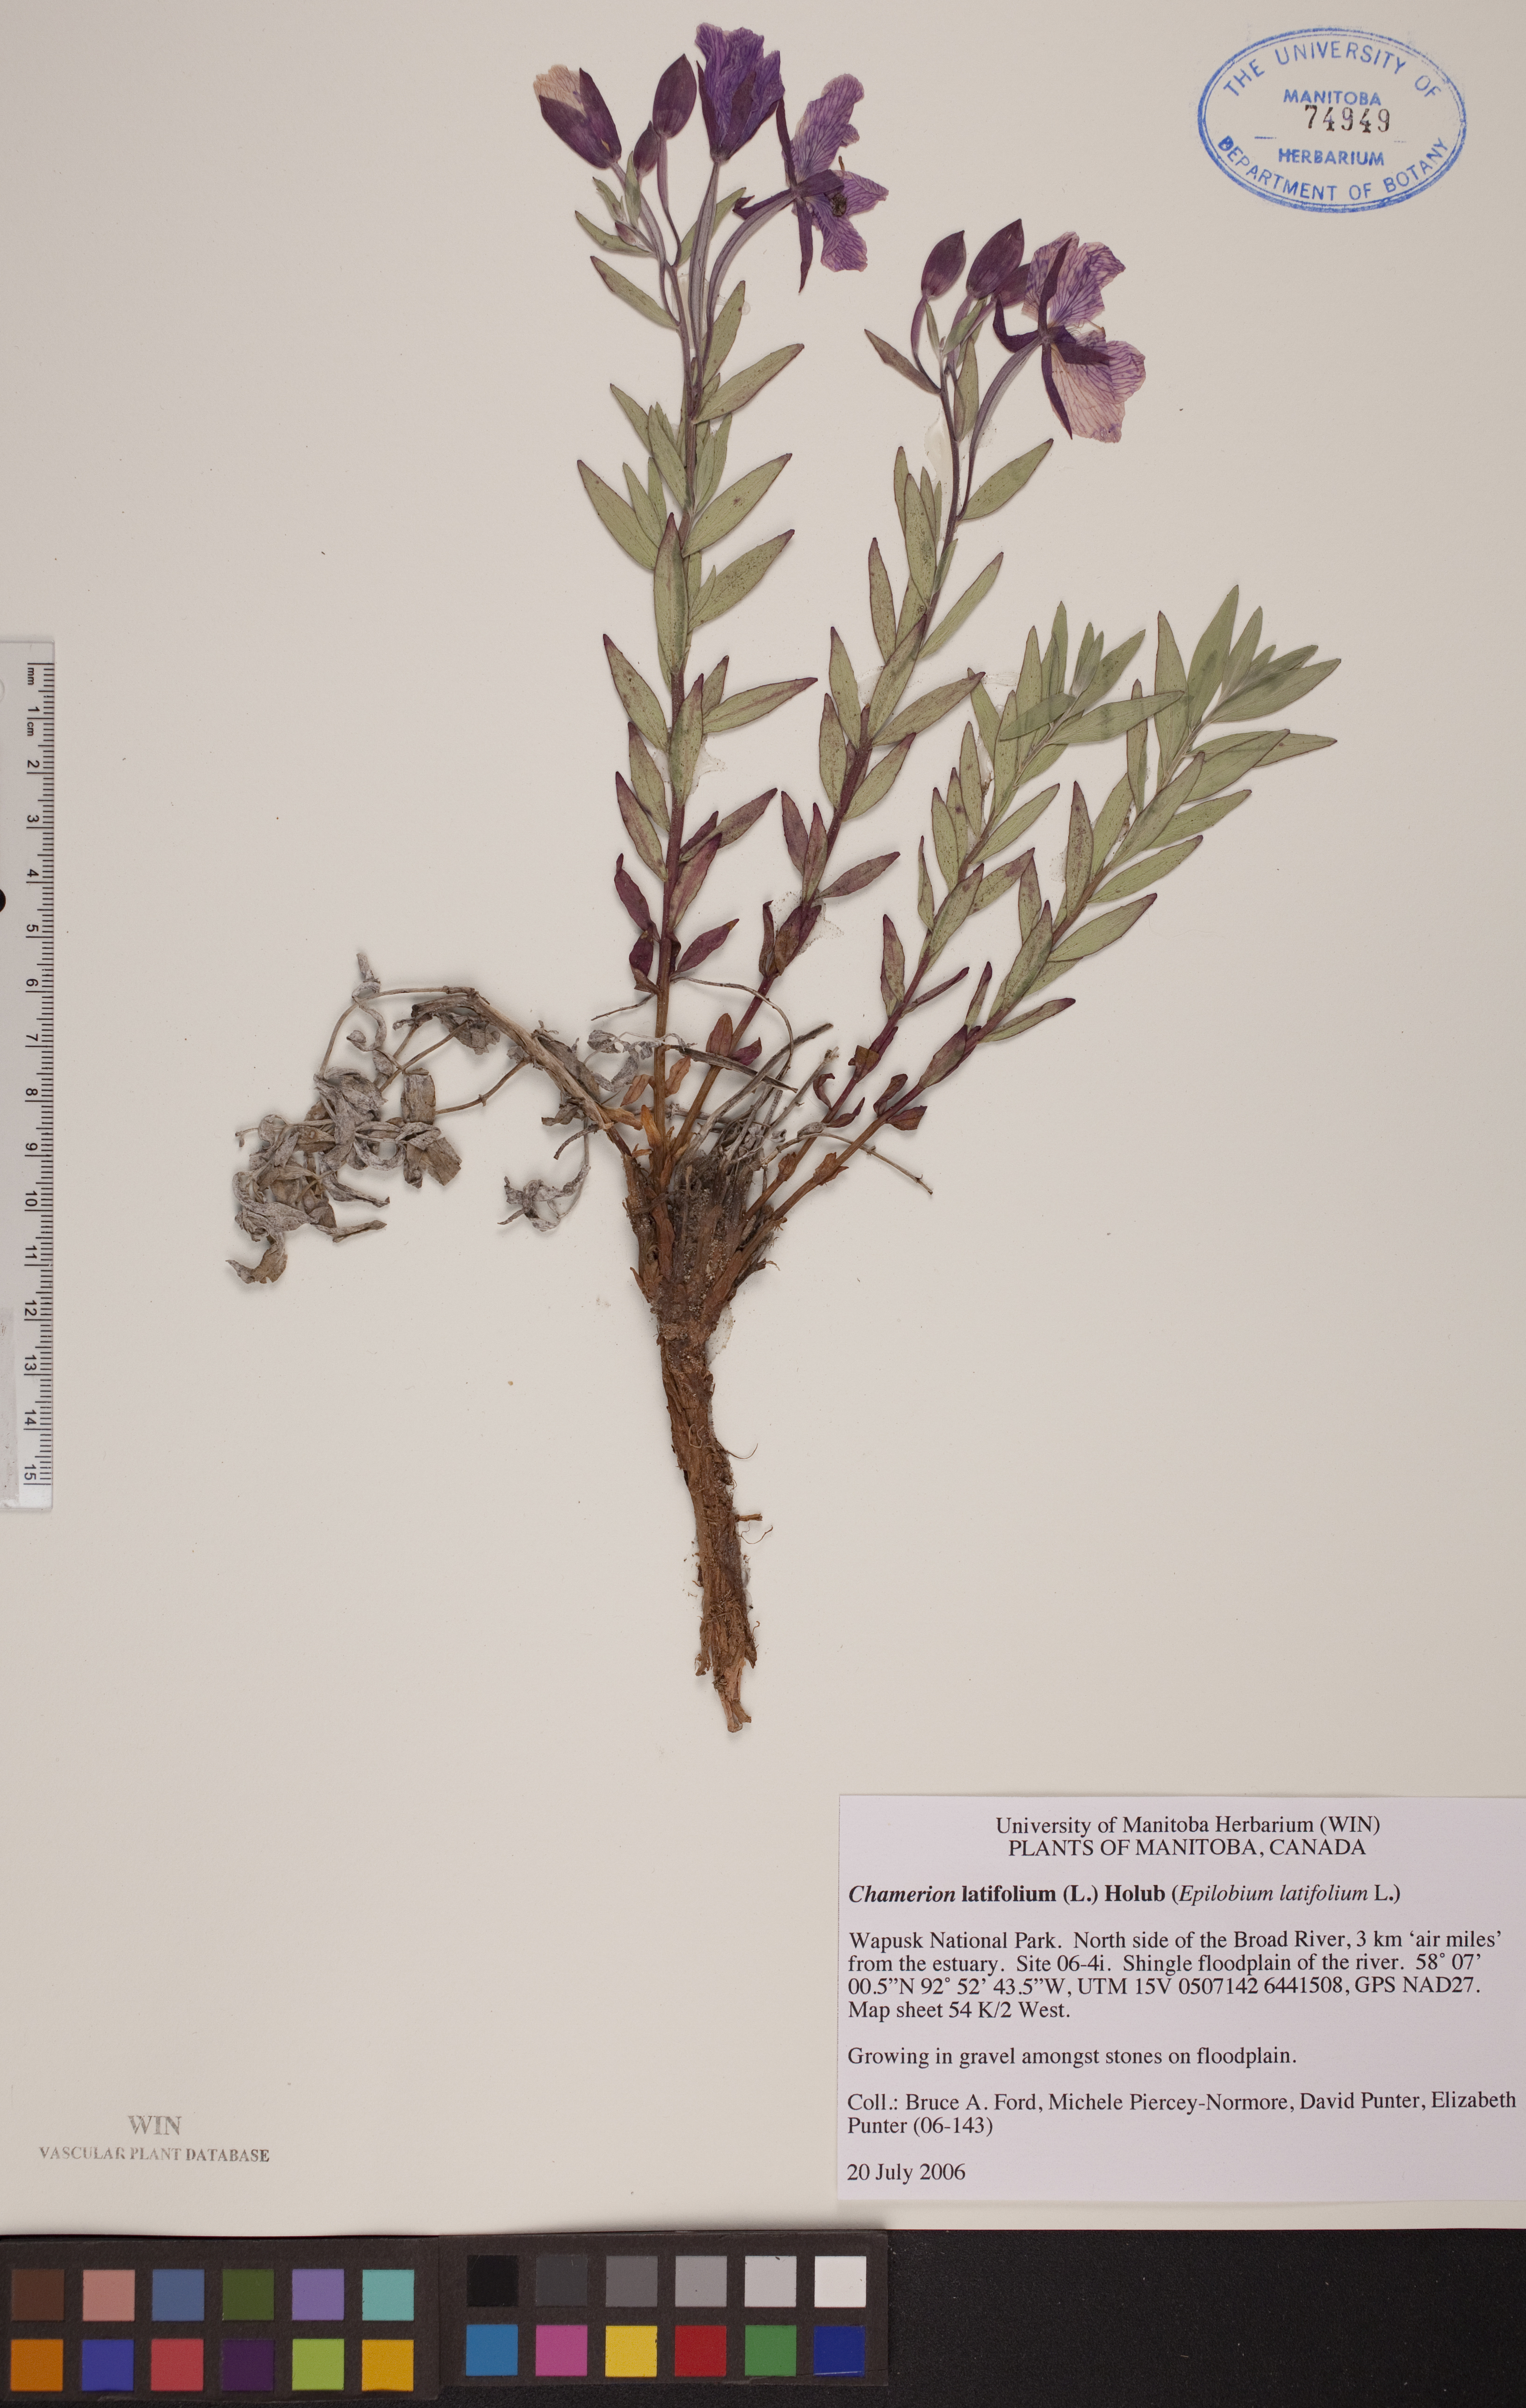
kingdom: Plantae
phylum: Tracheophyta
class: Magnoliopsida
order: Myrtales
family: Onagraceae
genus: Chamaenerion
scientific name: Chamaenerion latifolium
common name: Dwarf fireweed
